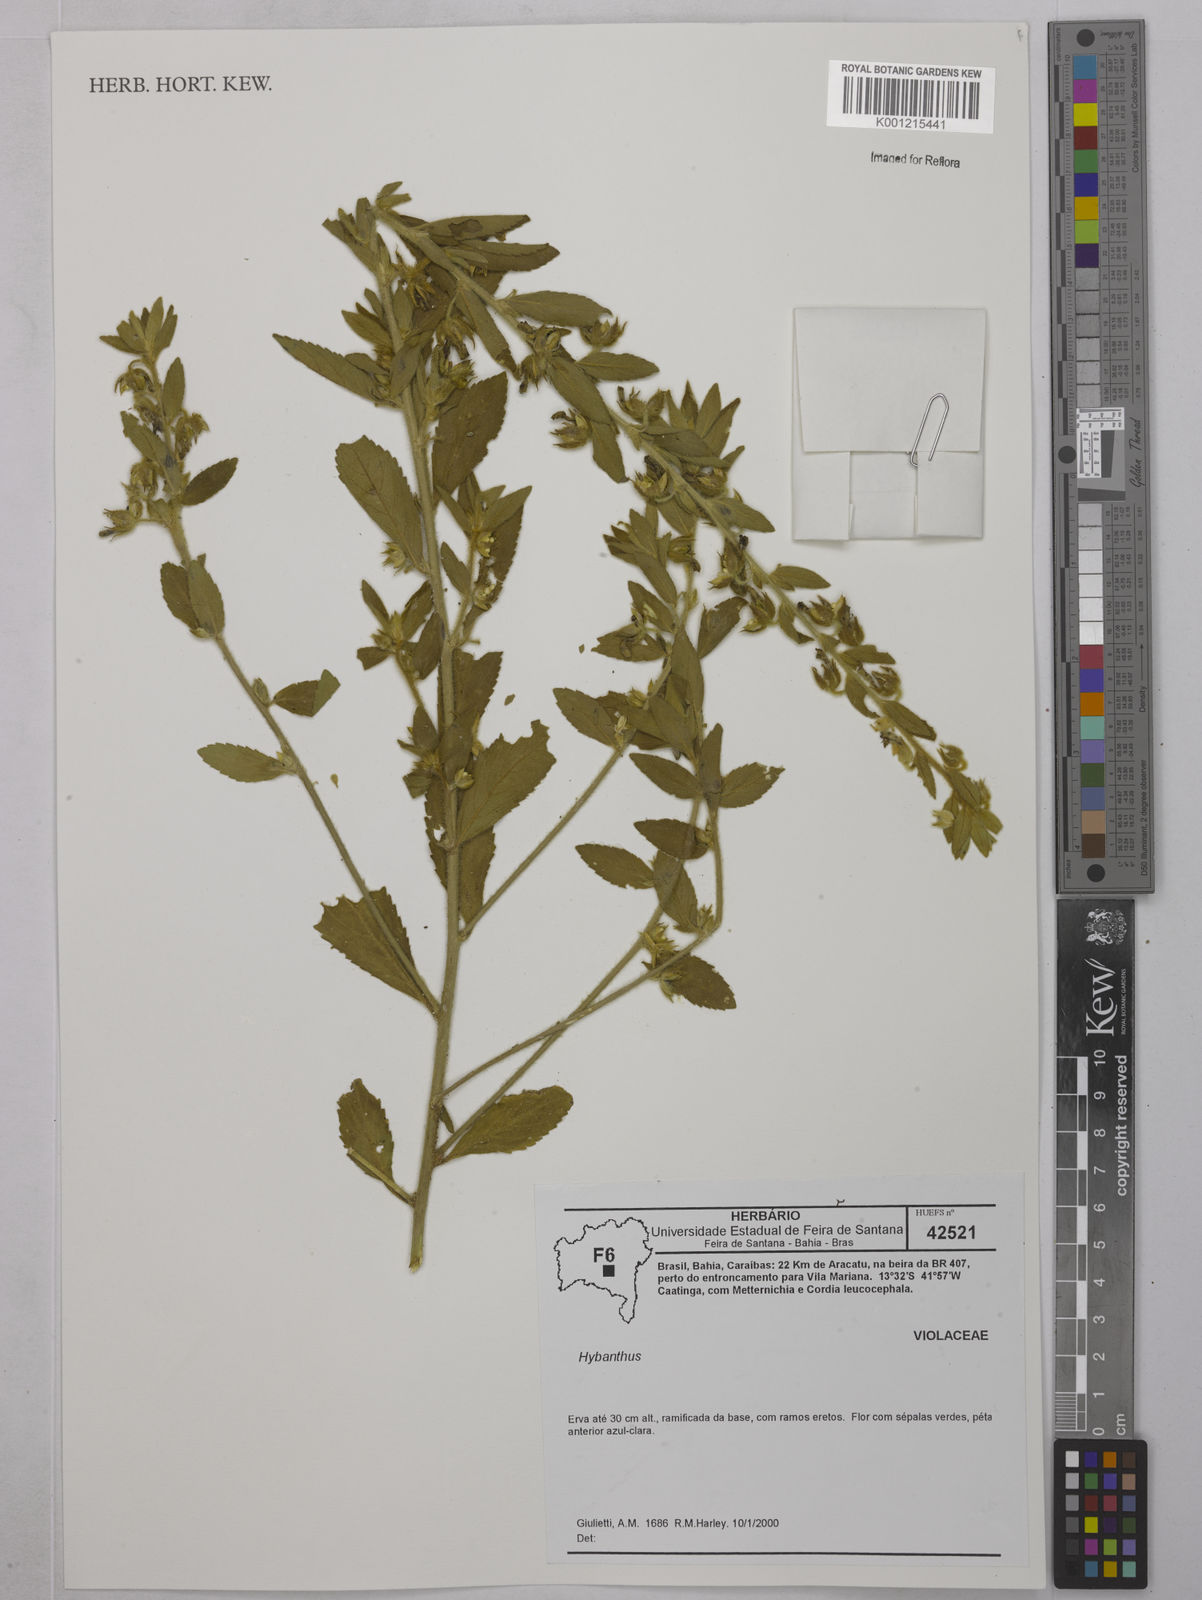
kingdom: Plantae
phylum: Tracheophyta
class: Magnoliopsida
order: Malpighiales
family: Violaceae
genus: Hybanthus
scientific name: Hybanthus
